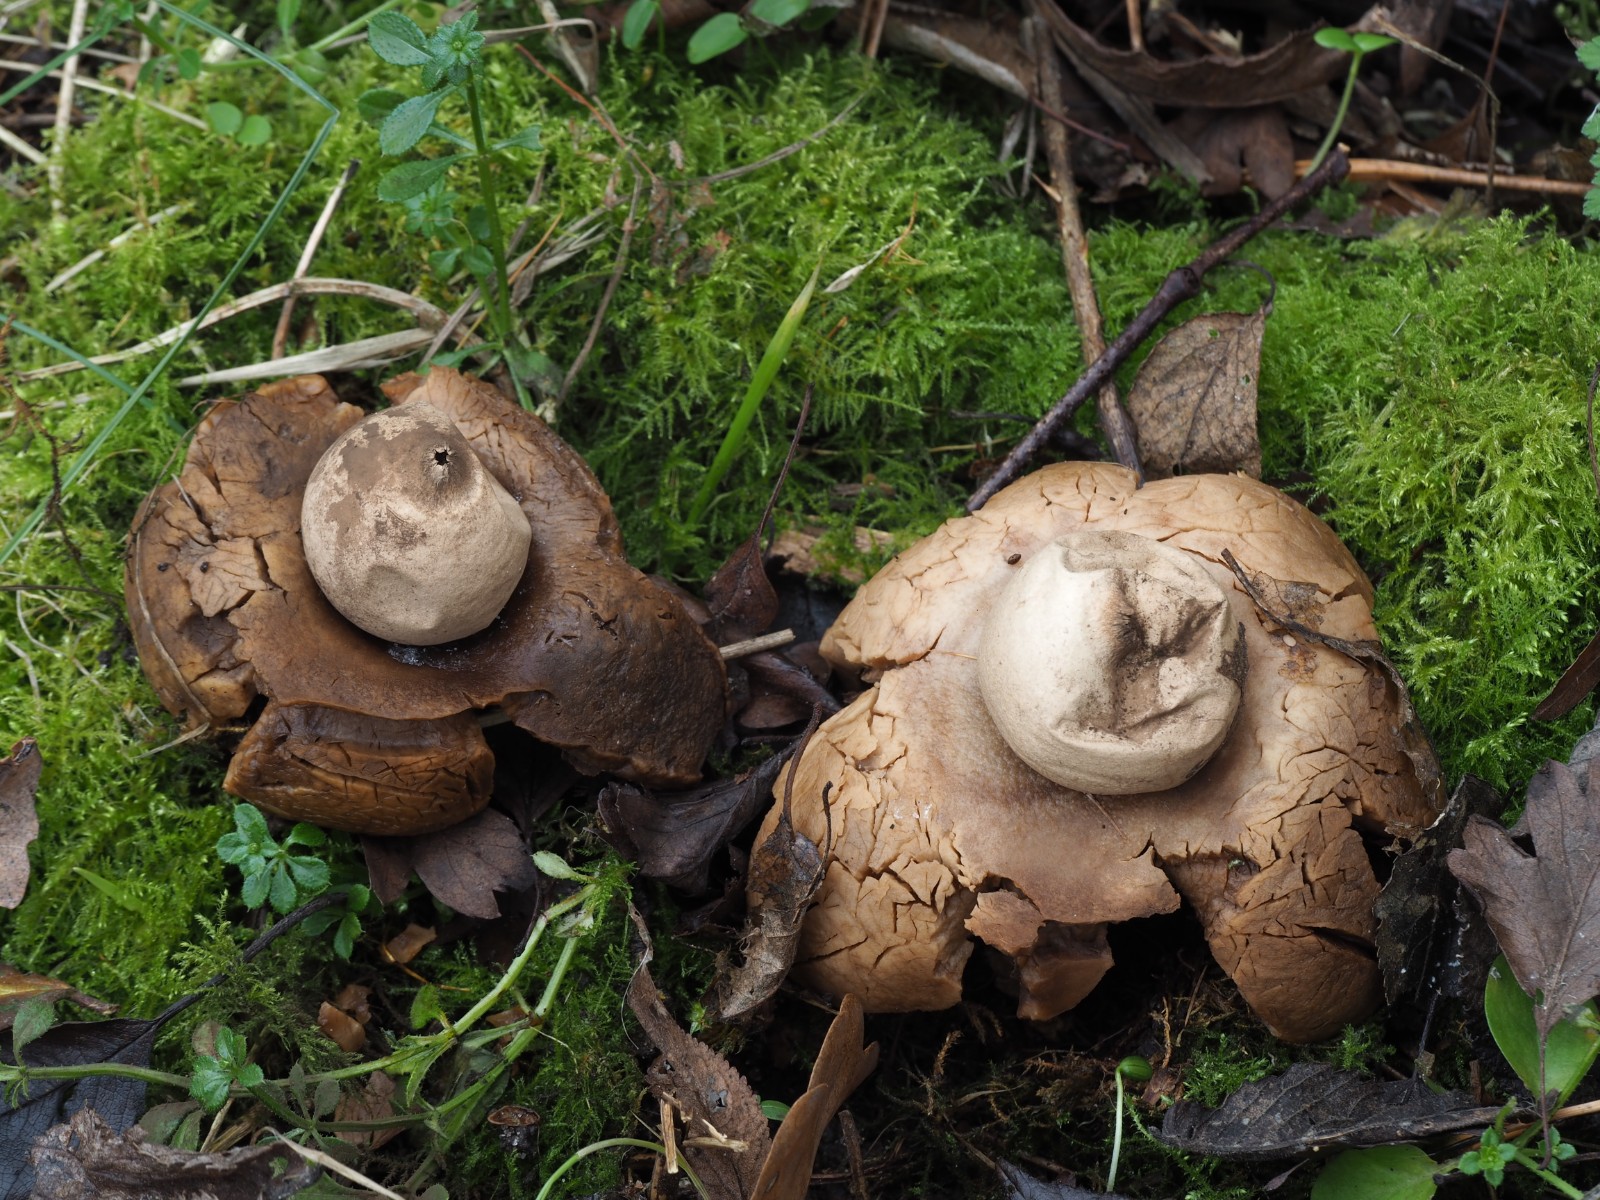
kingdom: Fungi
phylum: Basidiomycota
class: Agaricomycetes
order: Geastrales
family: Geastraceae
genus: Geastrum
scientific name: Geastrum michelianum
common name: kødet stjernebold
